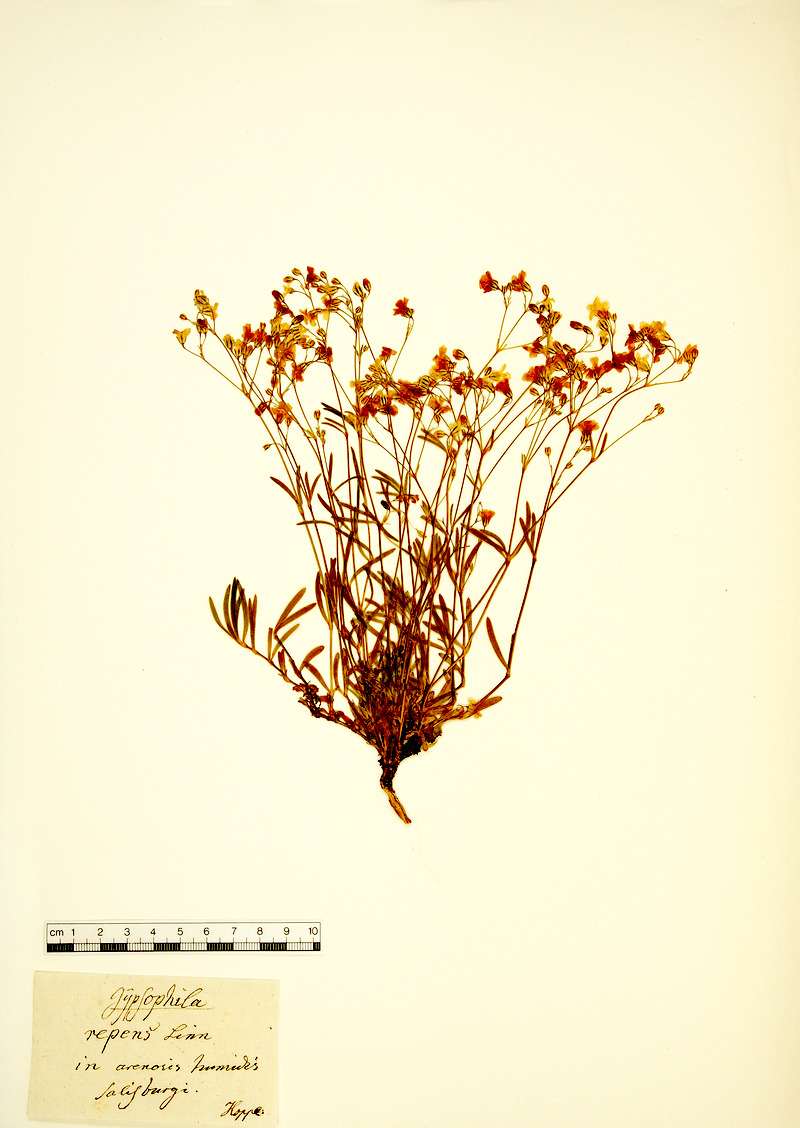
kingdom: Plantae
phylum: Tracheophyta
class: Magnoliopsida
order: Caryophyllales
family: Caryophyllaceae
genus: Gypsophila
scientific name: Gypsophila repens
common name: Creeping baby's-breath
